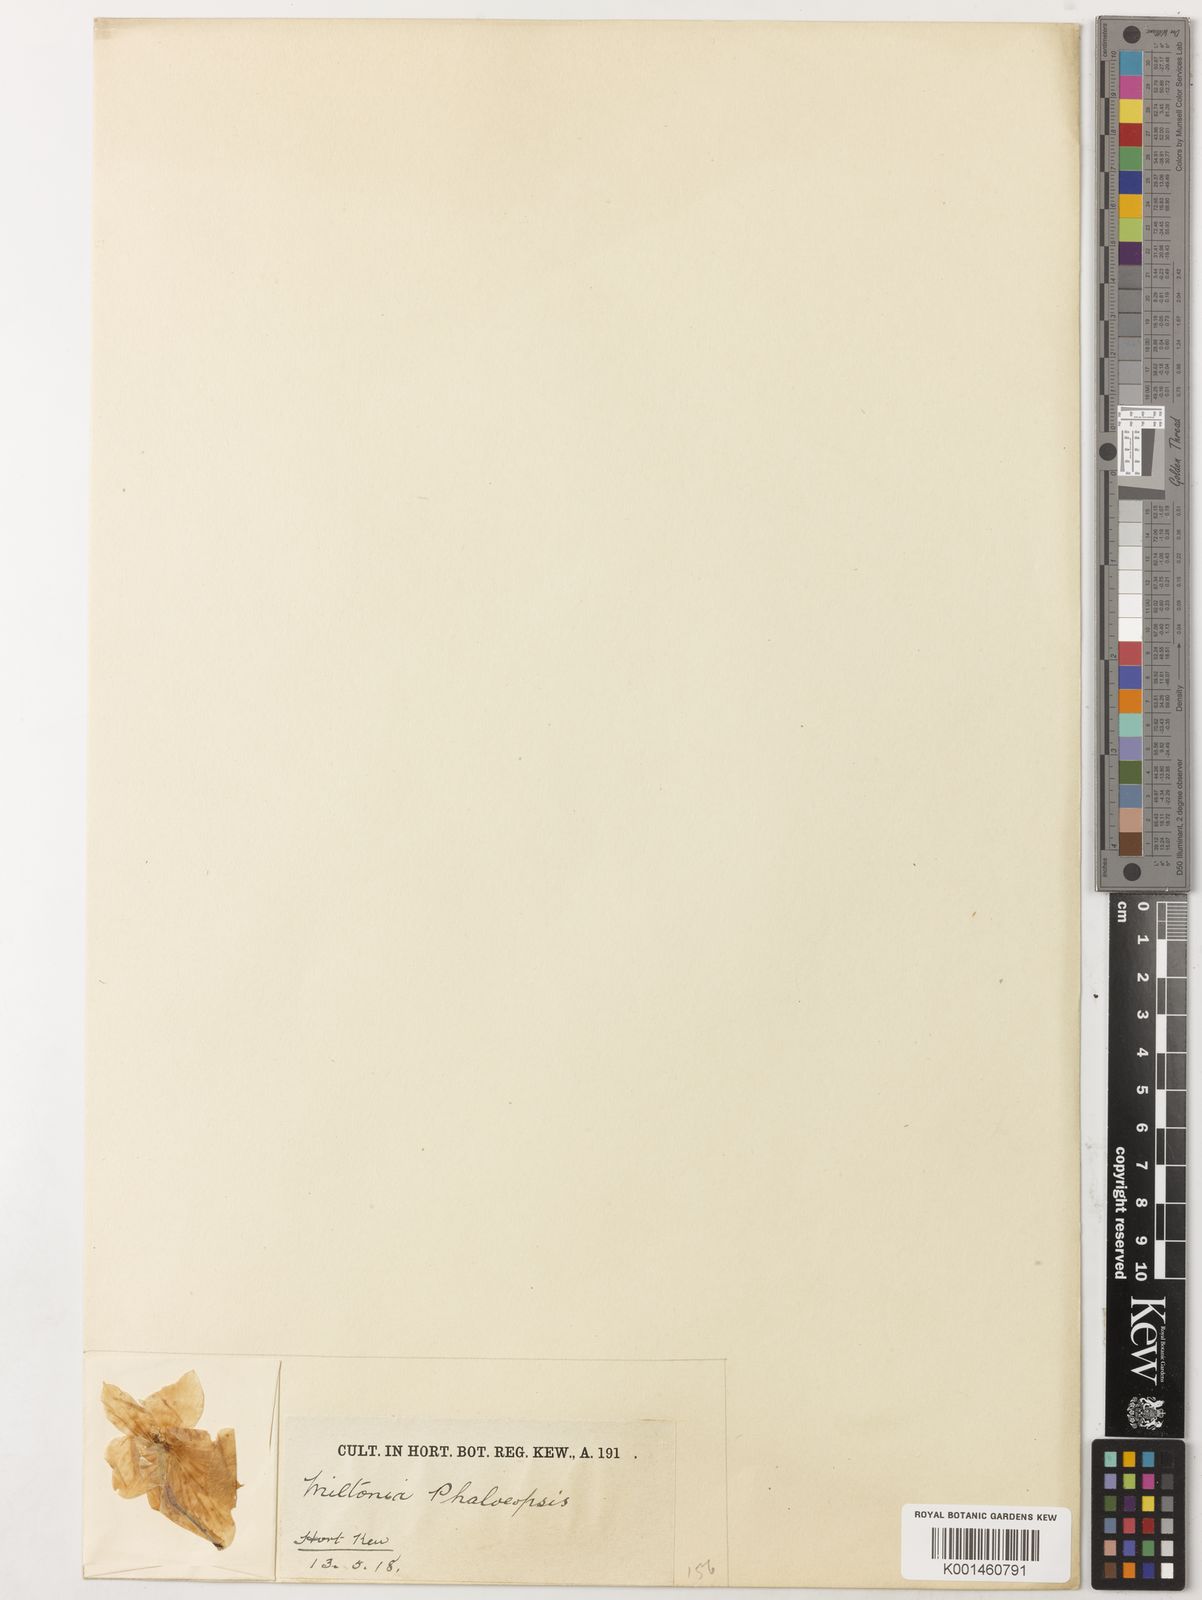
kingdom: Plantae
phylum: Tracheophyta
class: Liliopsida
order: Asparagales
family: Orchidaceae
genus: Miltoniopsis
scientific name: Miltoniopsis phalaenopsis
